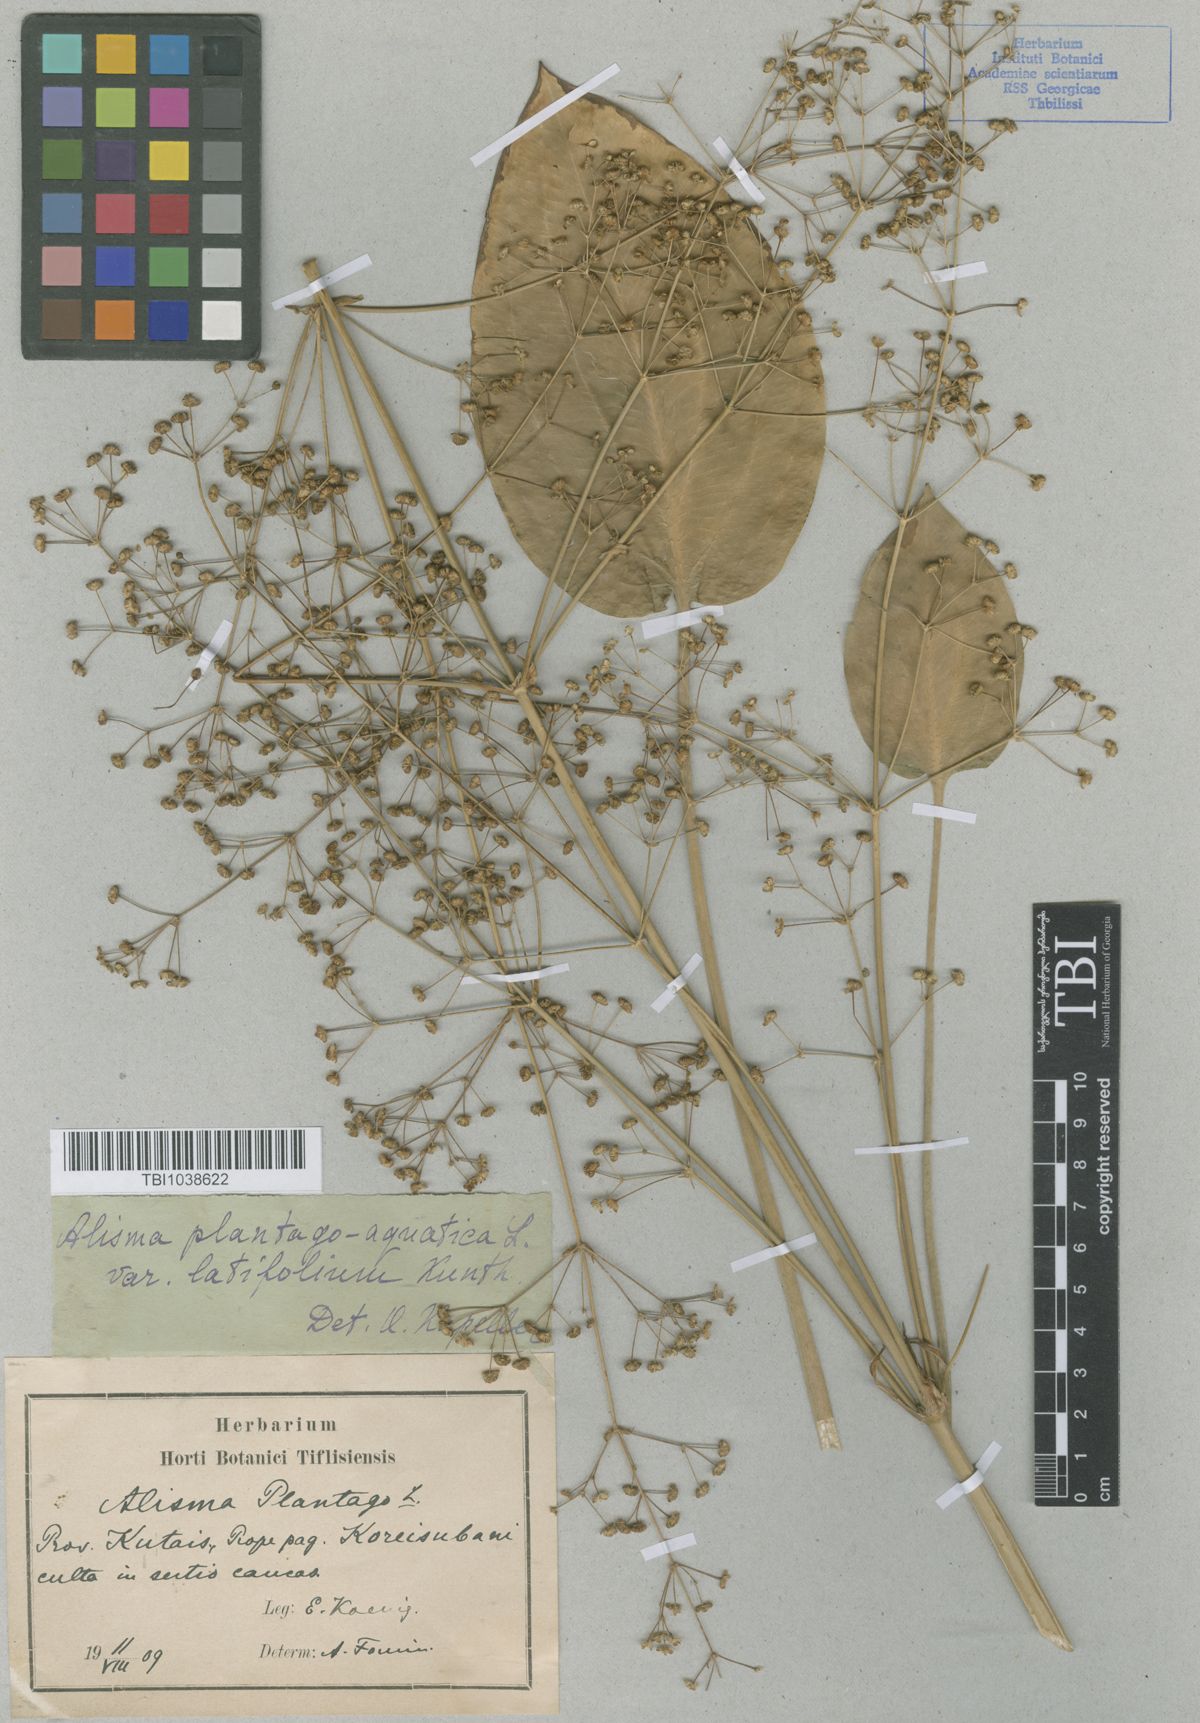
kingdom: Plantae
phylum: Tracheophyta
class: Liliopsida
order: Alismatales
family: Alismataceae
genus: Alisma
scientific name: Alisma plantago-aquatica
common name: Water-plantain
